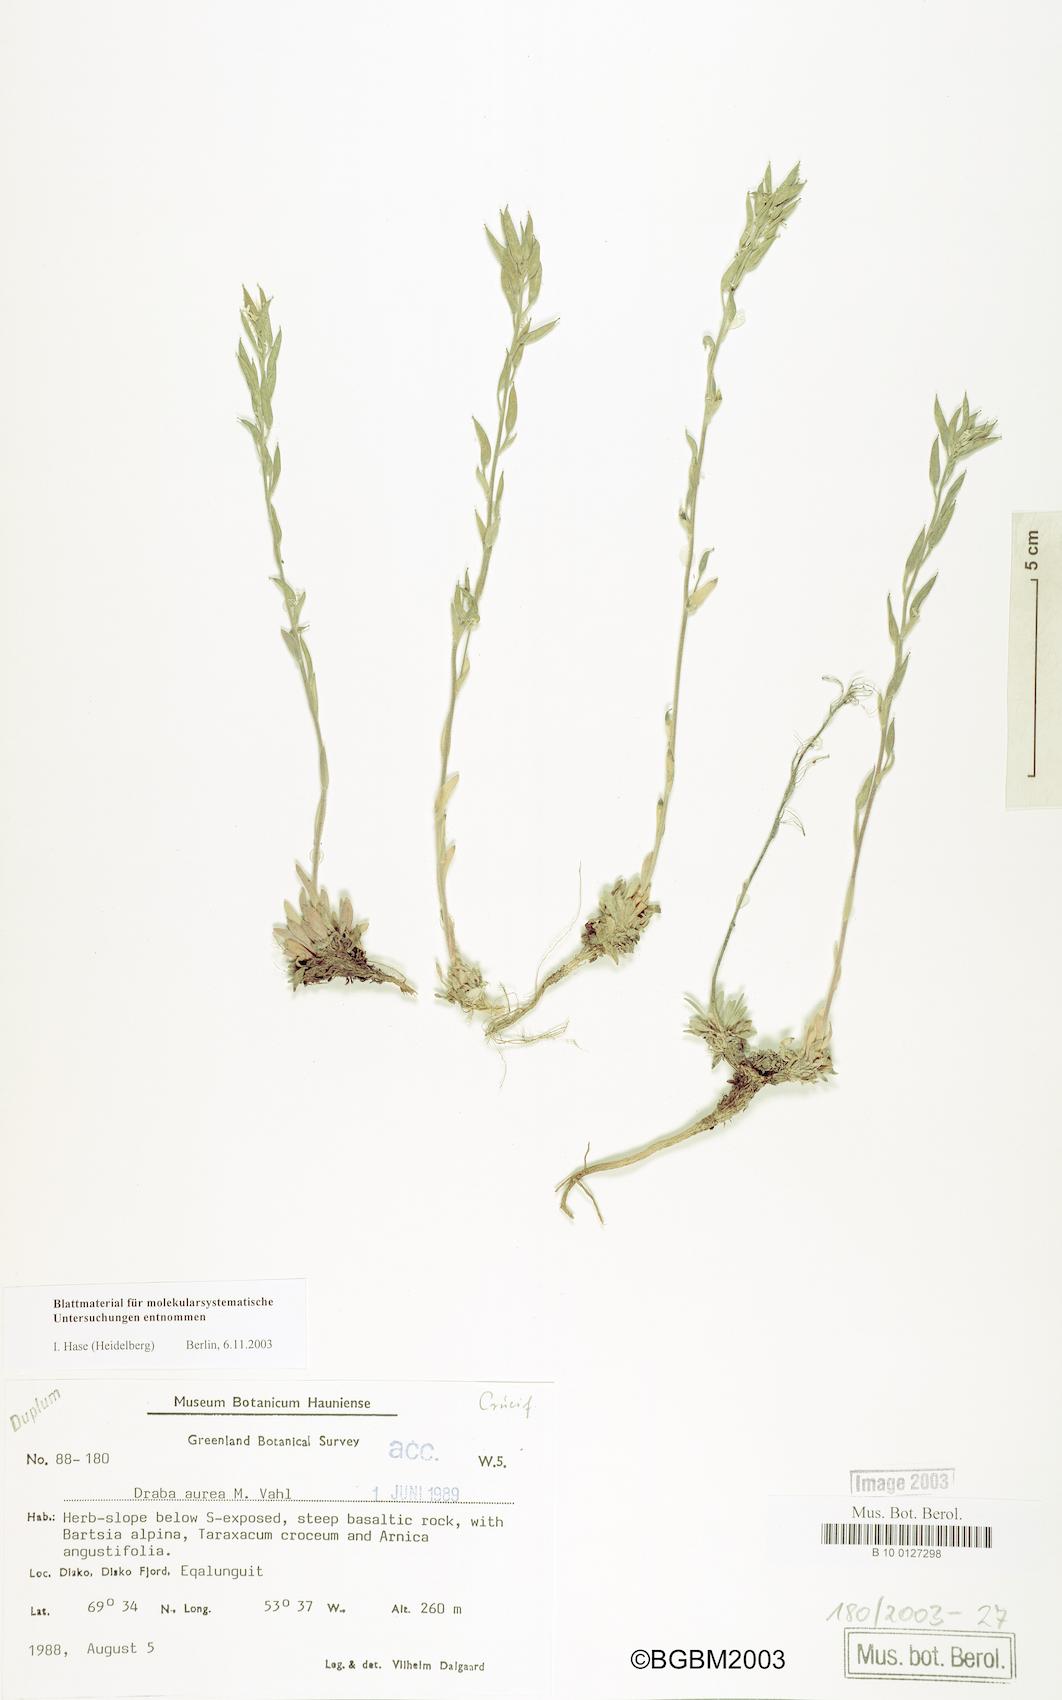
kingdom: Plantae
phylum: Tracheophyta
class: Magnoliopsida
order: Brassicales
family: Brassicaceae
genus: Draba
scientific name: Draba aurea
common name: Golden draba
